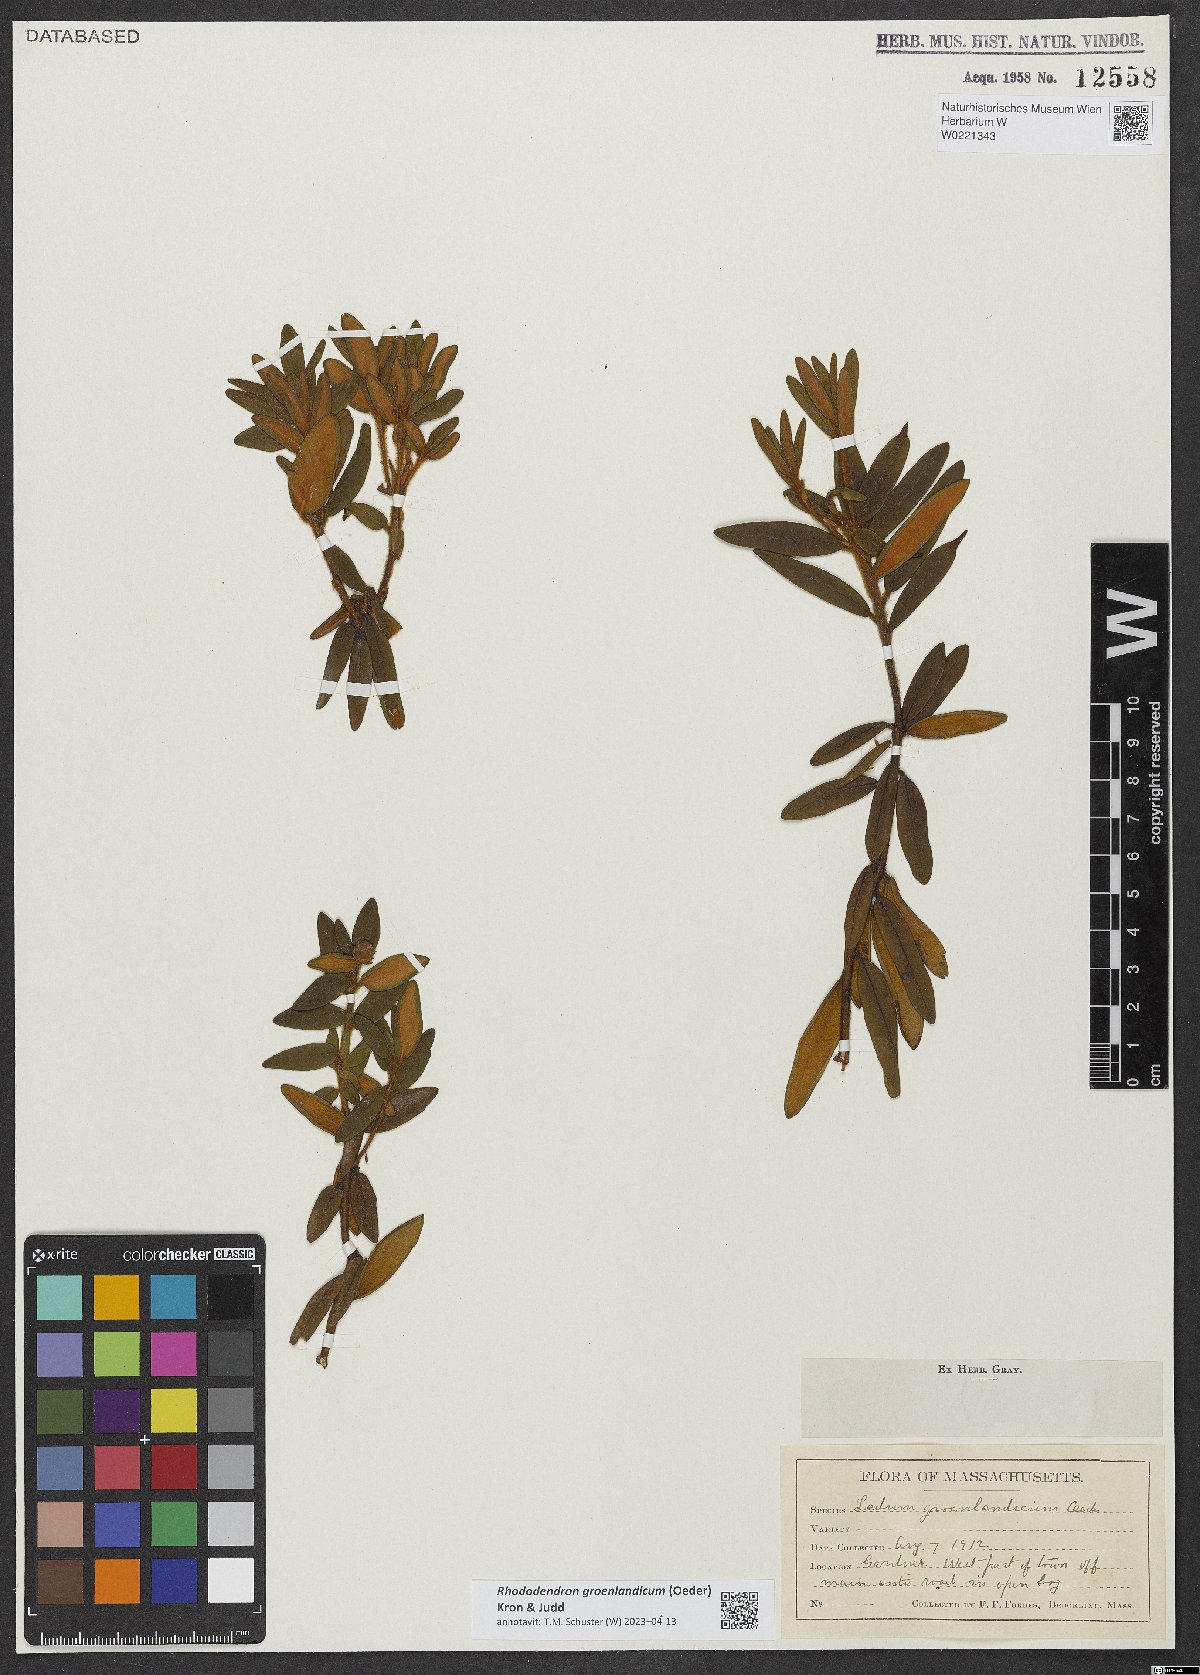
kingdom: Plantae
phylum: Tracheophyta
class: Magnoliopsida
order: Ericales
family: Ericaceae
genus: Rhododendron
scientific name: Rhododendron groenlandicum
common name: Bog labrador tea
